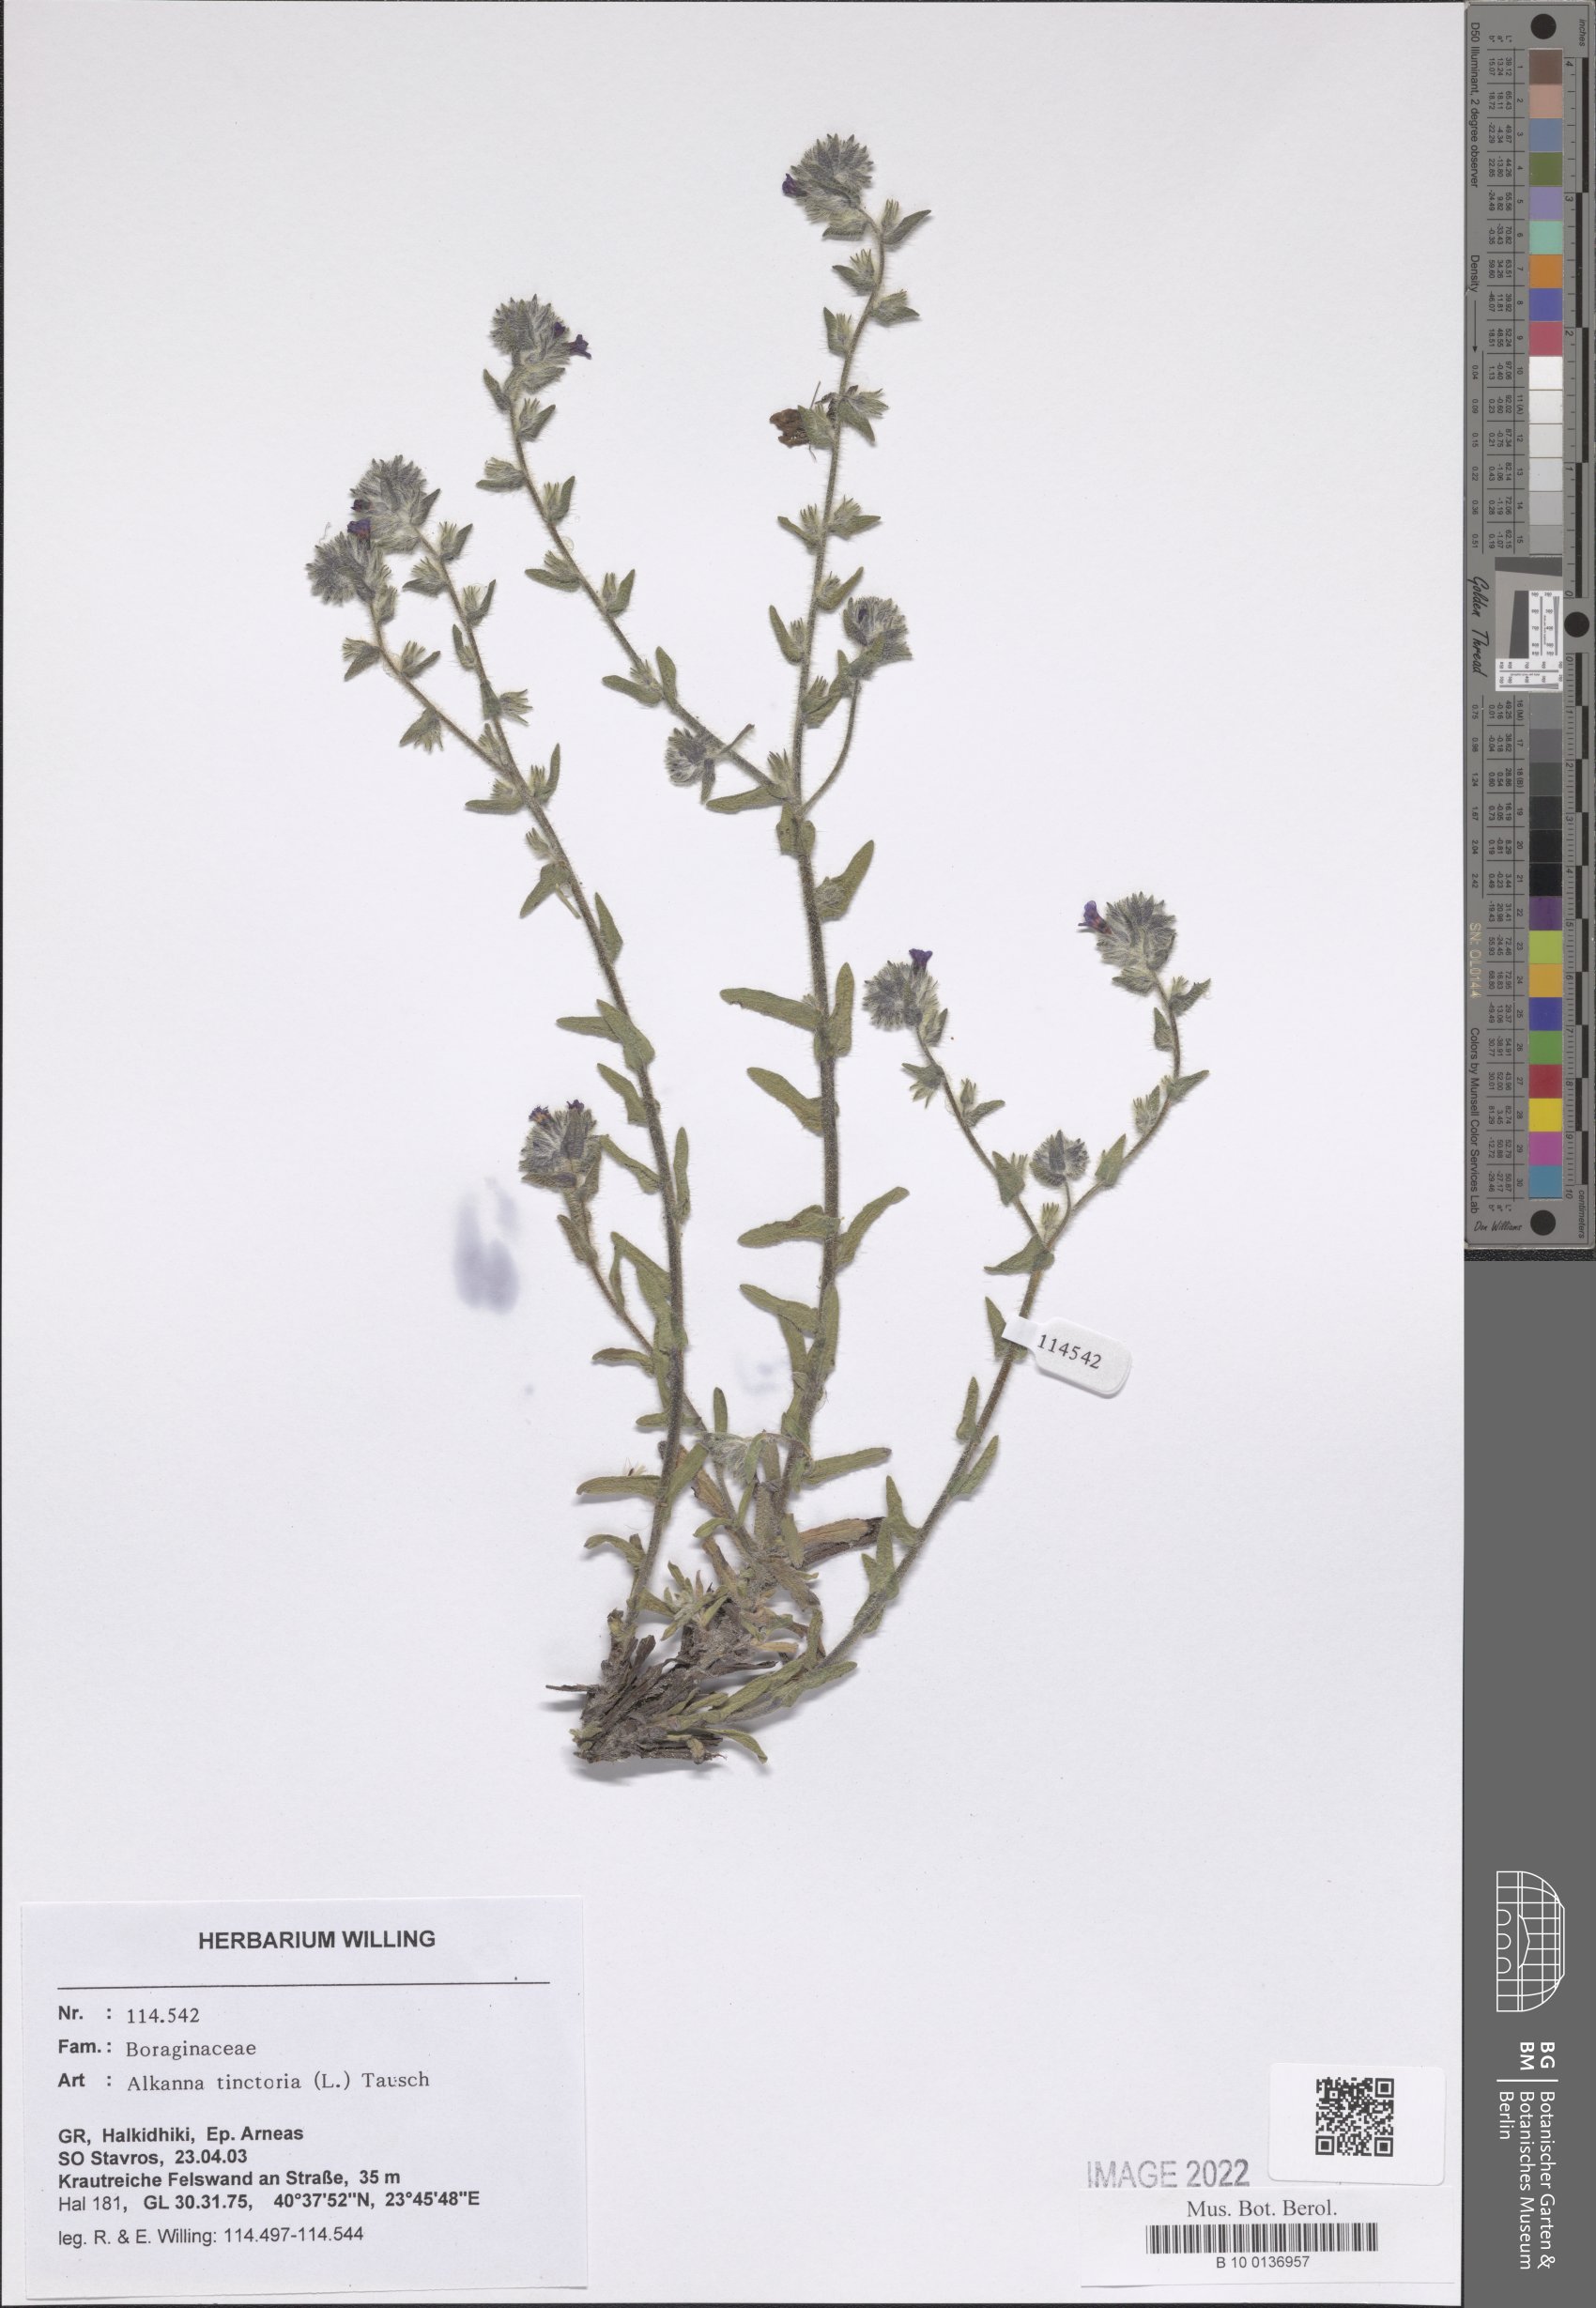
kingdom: Plantae
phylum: Tracheophyta
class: Magnoliopsida
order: Boraginales
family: Boraginaceae
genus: Alkanna
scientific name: Alkanna tinctoria
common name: Dyer's-alkanet
